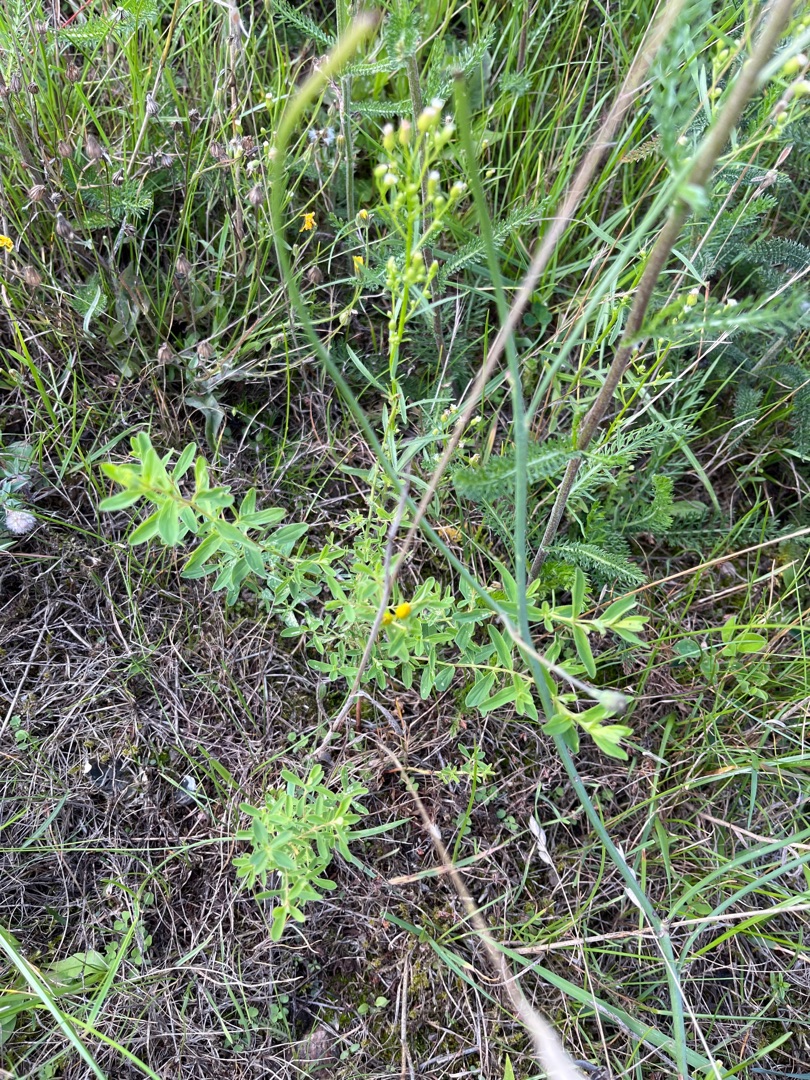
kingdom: Plantae
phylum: Tracheophyta
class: Magnoliopsida
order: Malpighiales
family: Hypericaceae
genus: Hypericum
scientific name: Hypericum perforatum
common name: Prikbladet perikon
